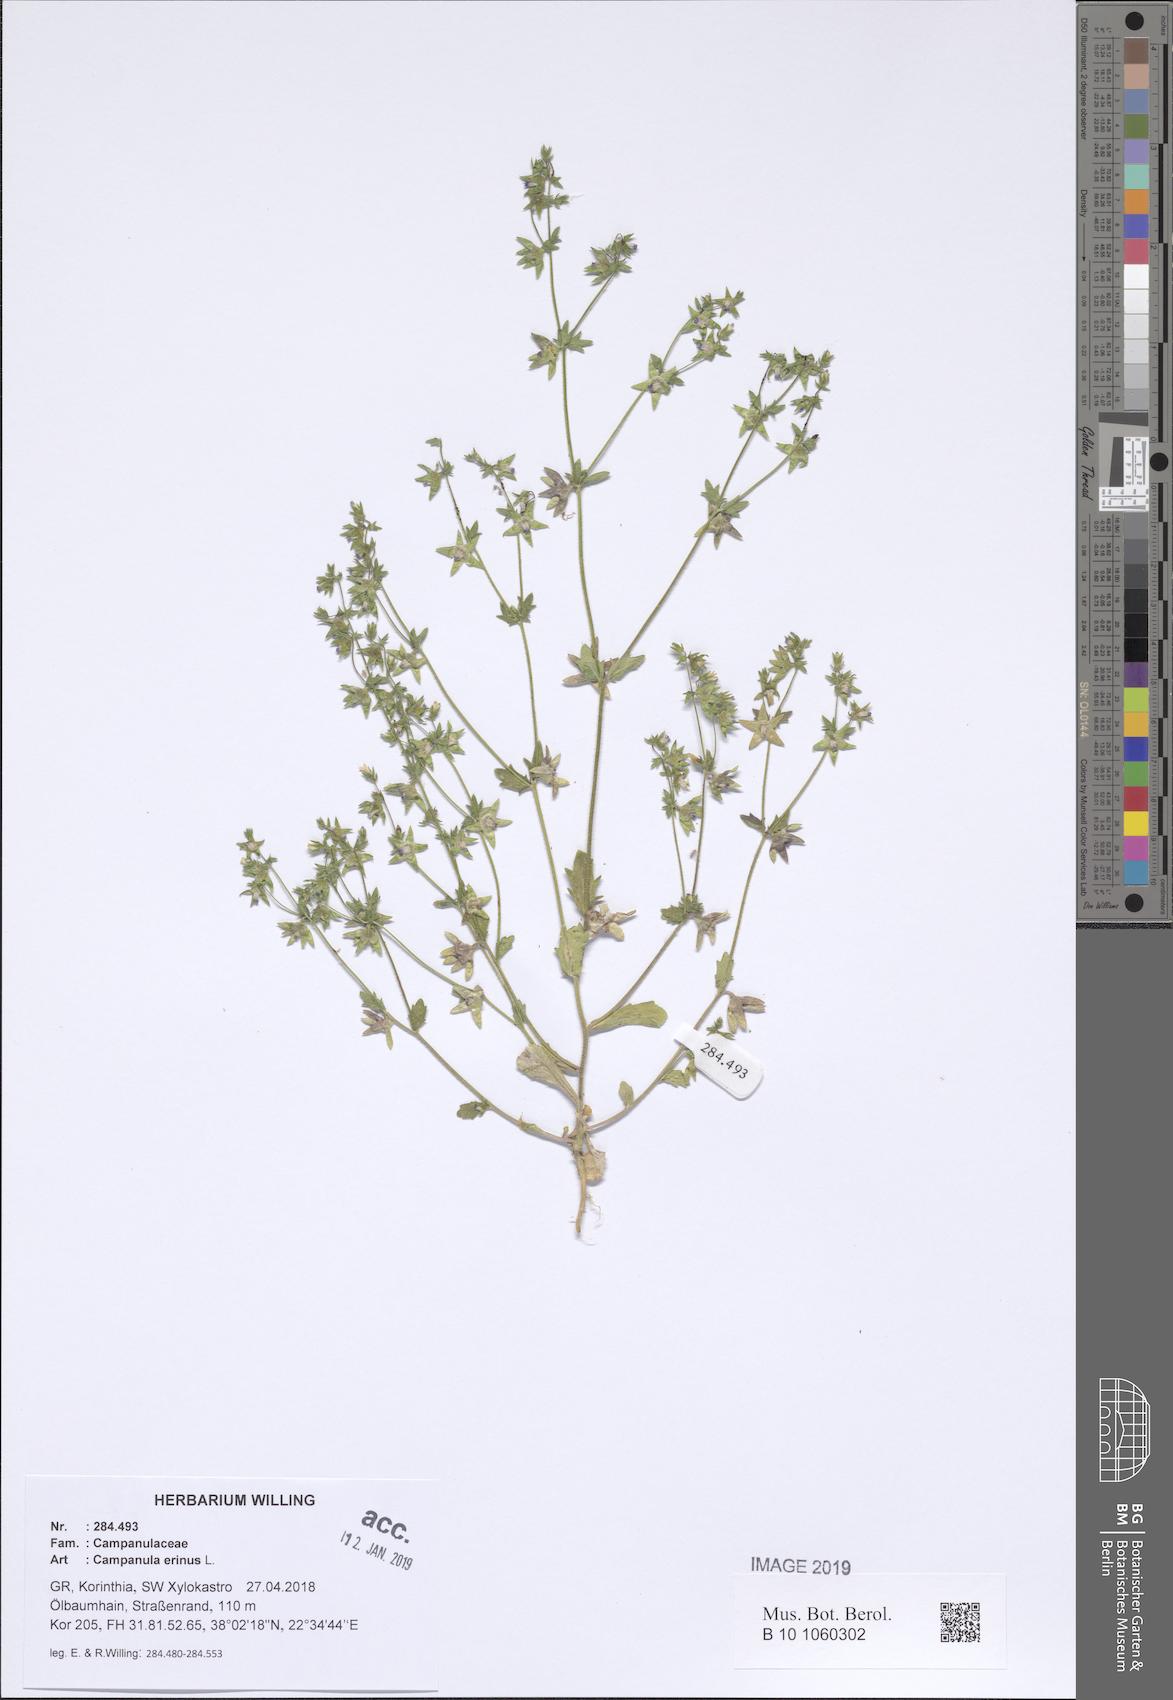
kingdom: Plantae
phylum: Tracheophyta
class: Magnoliopsida
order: Asterales
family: Campanulaceae
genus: Campanula
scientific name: Campanula erinus
